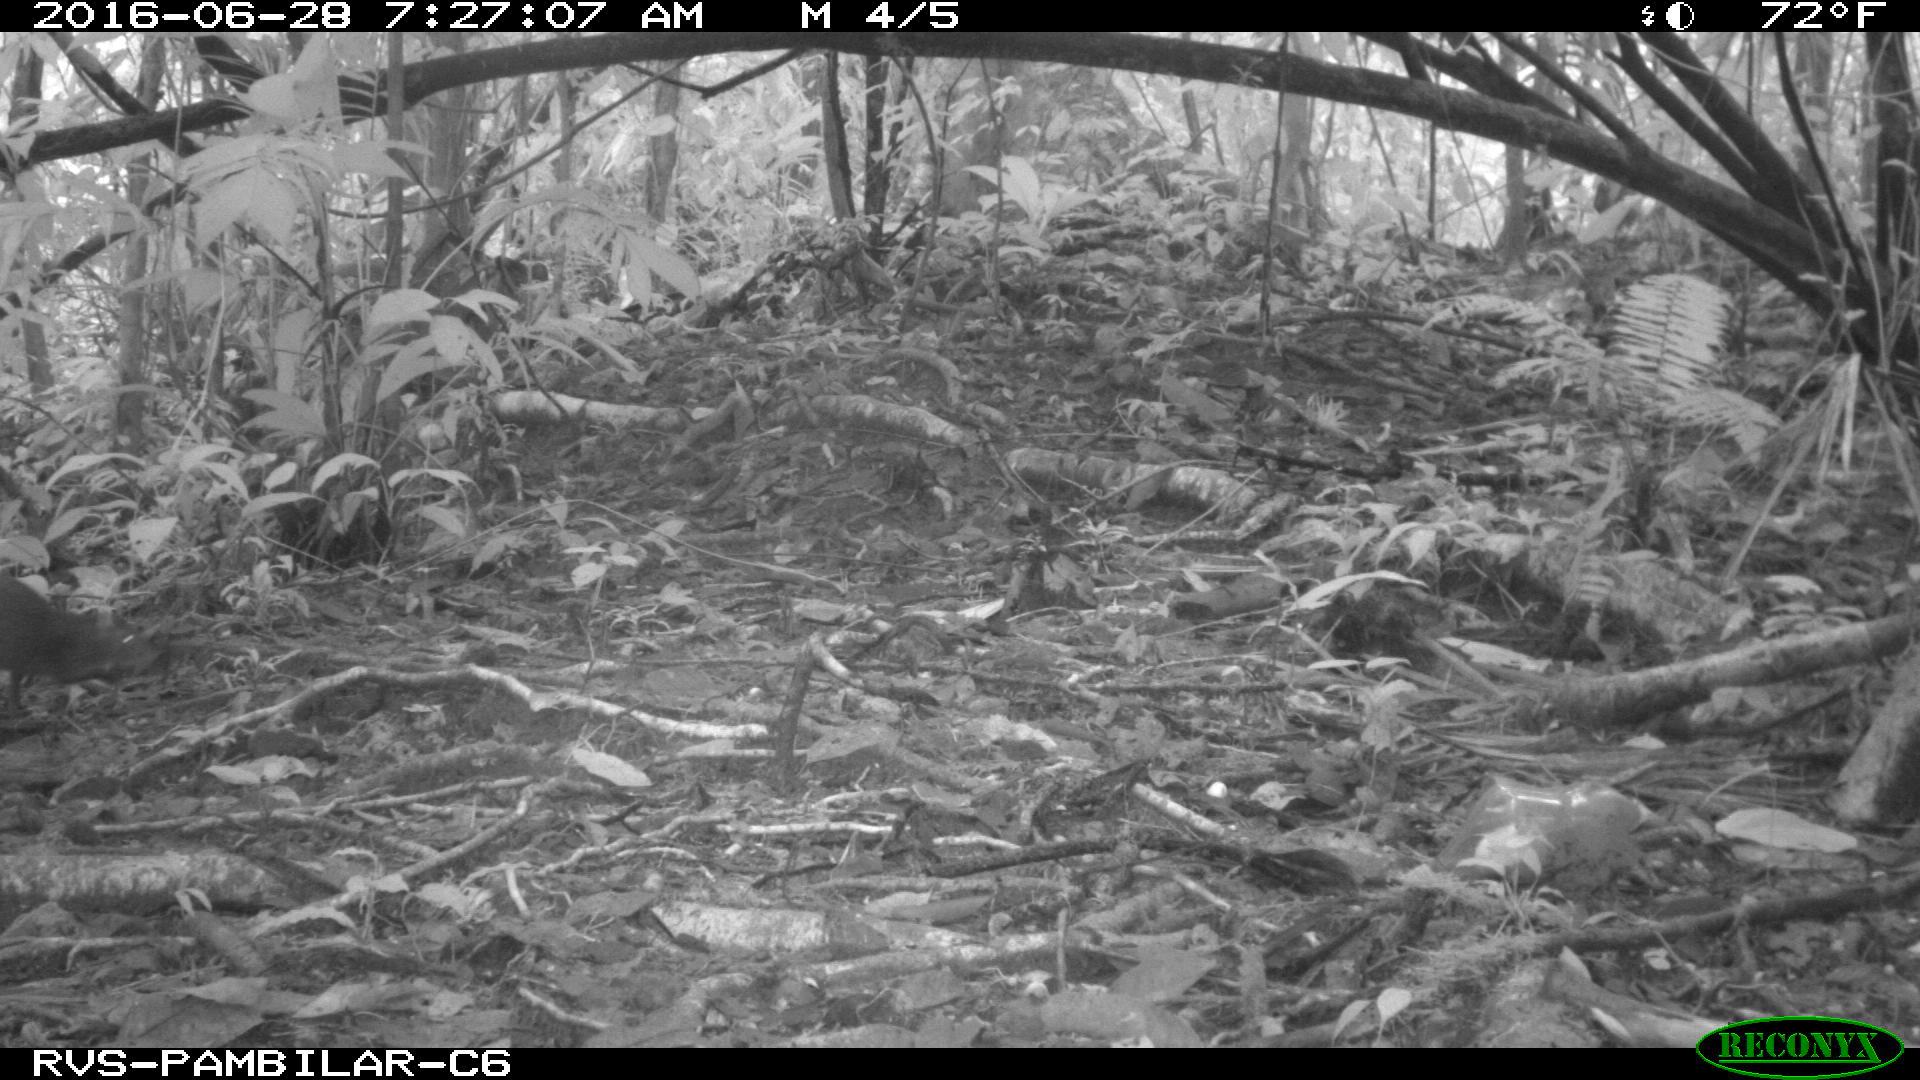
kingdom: Animalia
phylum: Chordata
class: Mammalia
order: Rodentia
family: Dasyproctidae
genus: Dasyprocta
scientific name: Dasyprocta punctata
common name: Central american agouti
